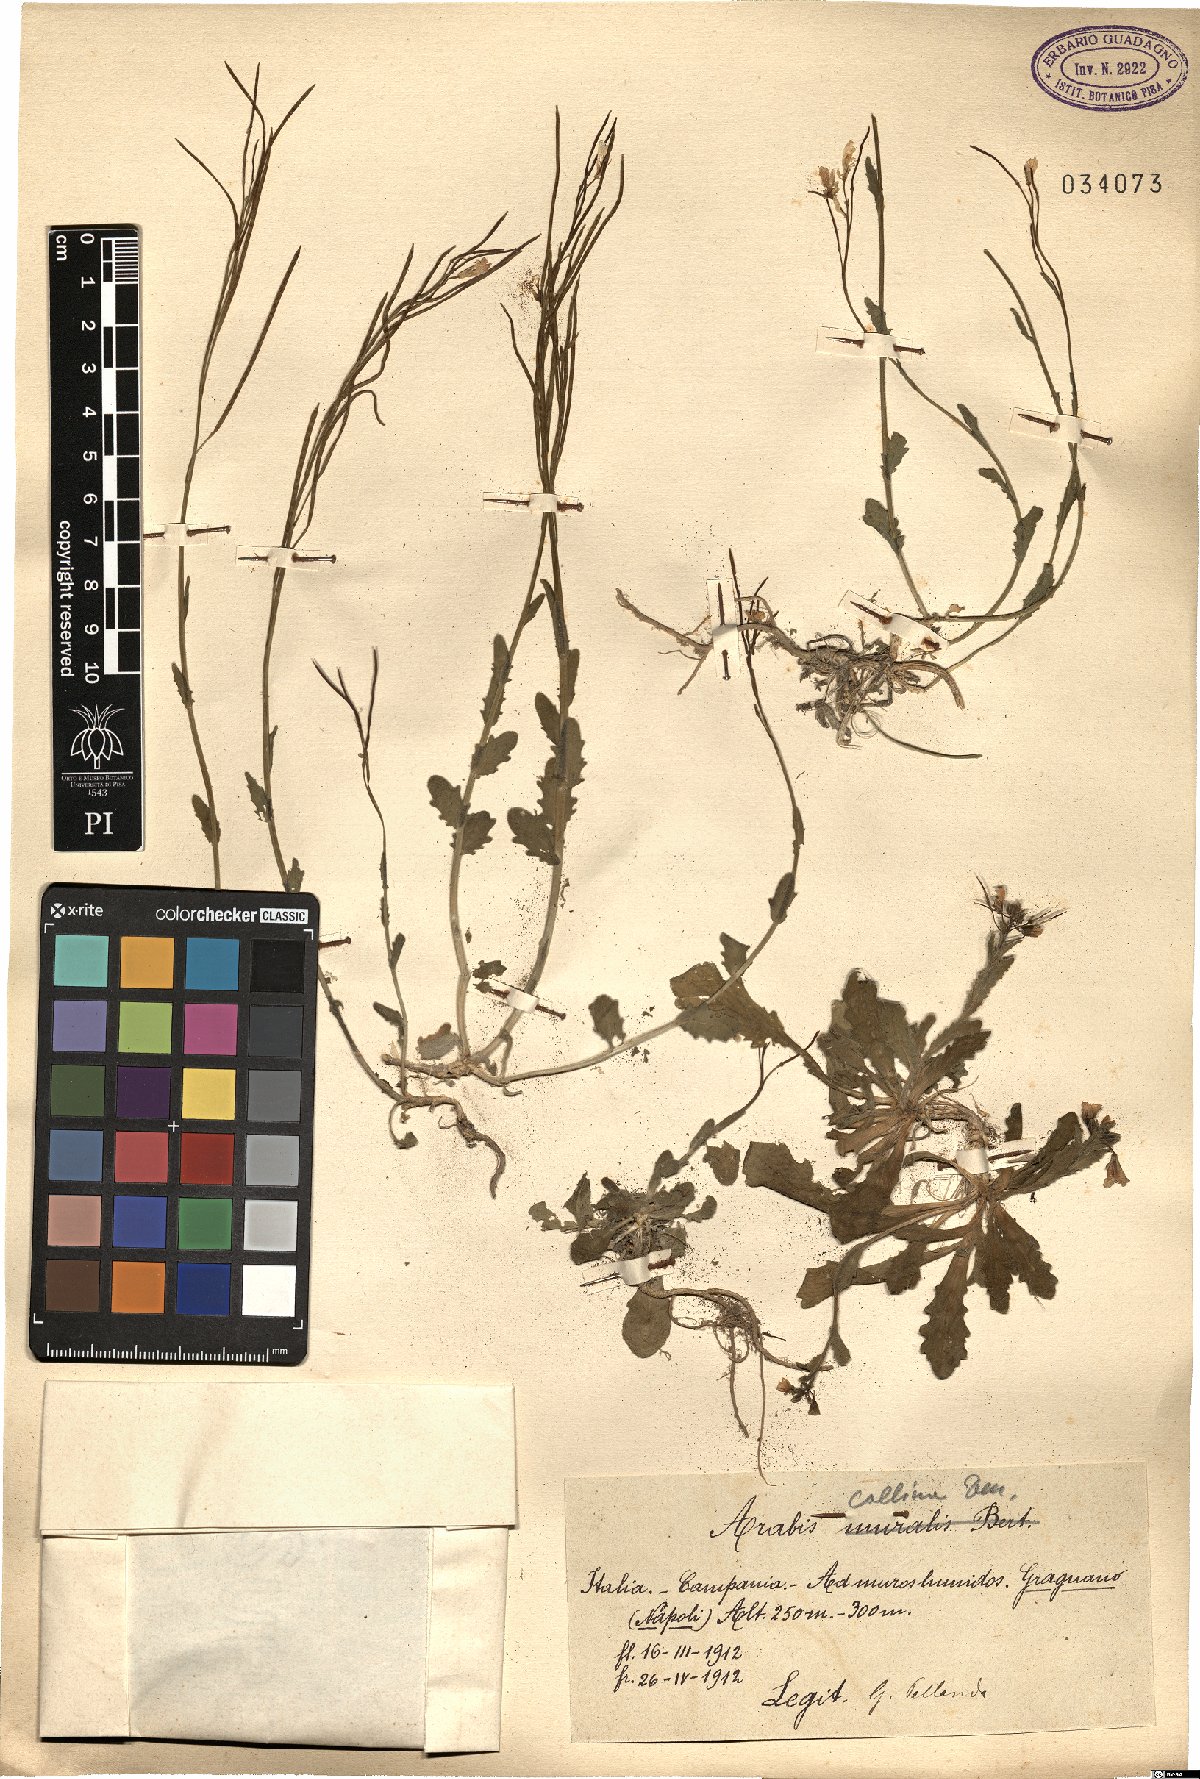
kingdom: Plantae
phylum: Tracheophyta
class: Magnoliopsida
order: Brassicales
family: Brassicaceae
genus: Arabis
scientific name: Arabis collina
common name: Rosy cress
